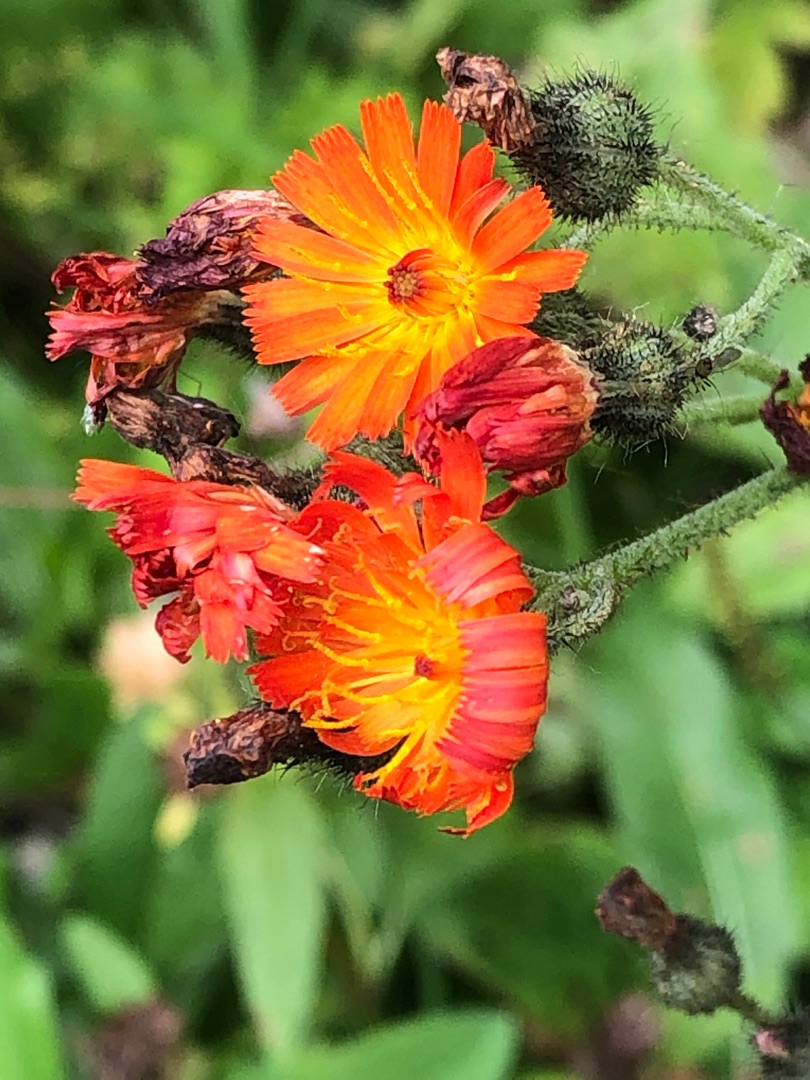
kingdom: Plantae
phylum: Tracheophyta
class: Magnoliopsida
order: Asterales
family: Asteraceae
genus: Pilosella
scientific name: Pilosella aurantiaca
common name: Pomerans-høgeurt
